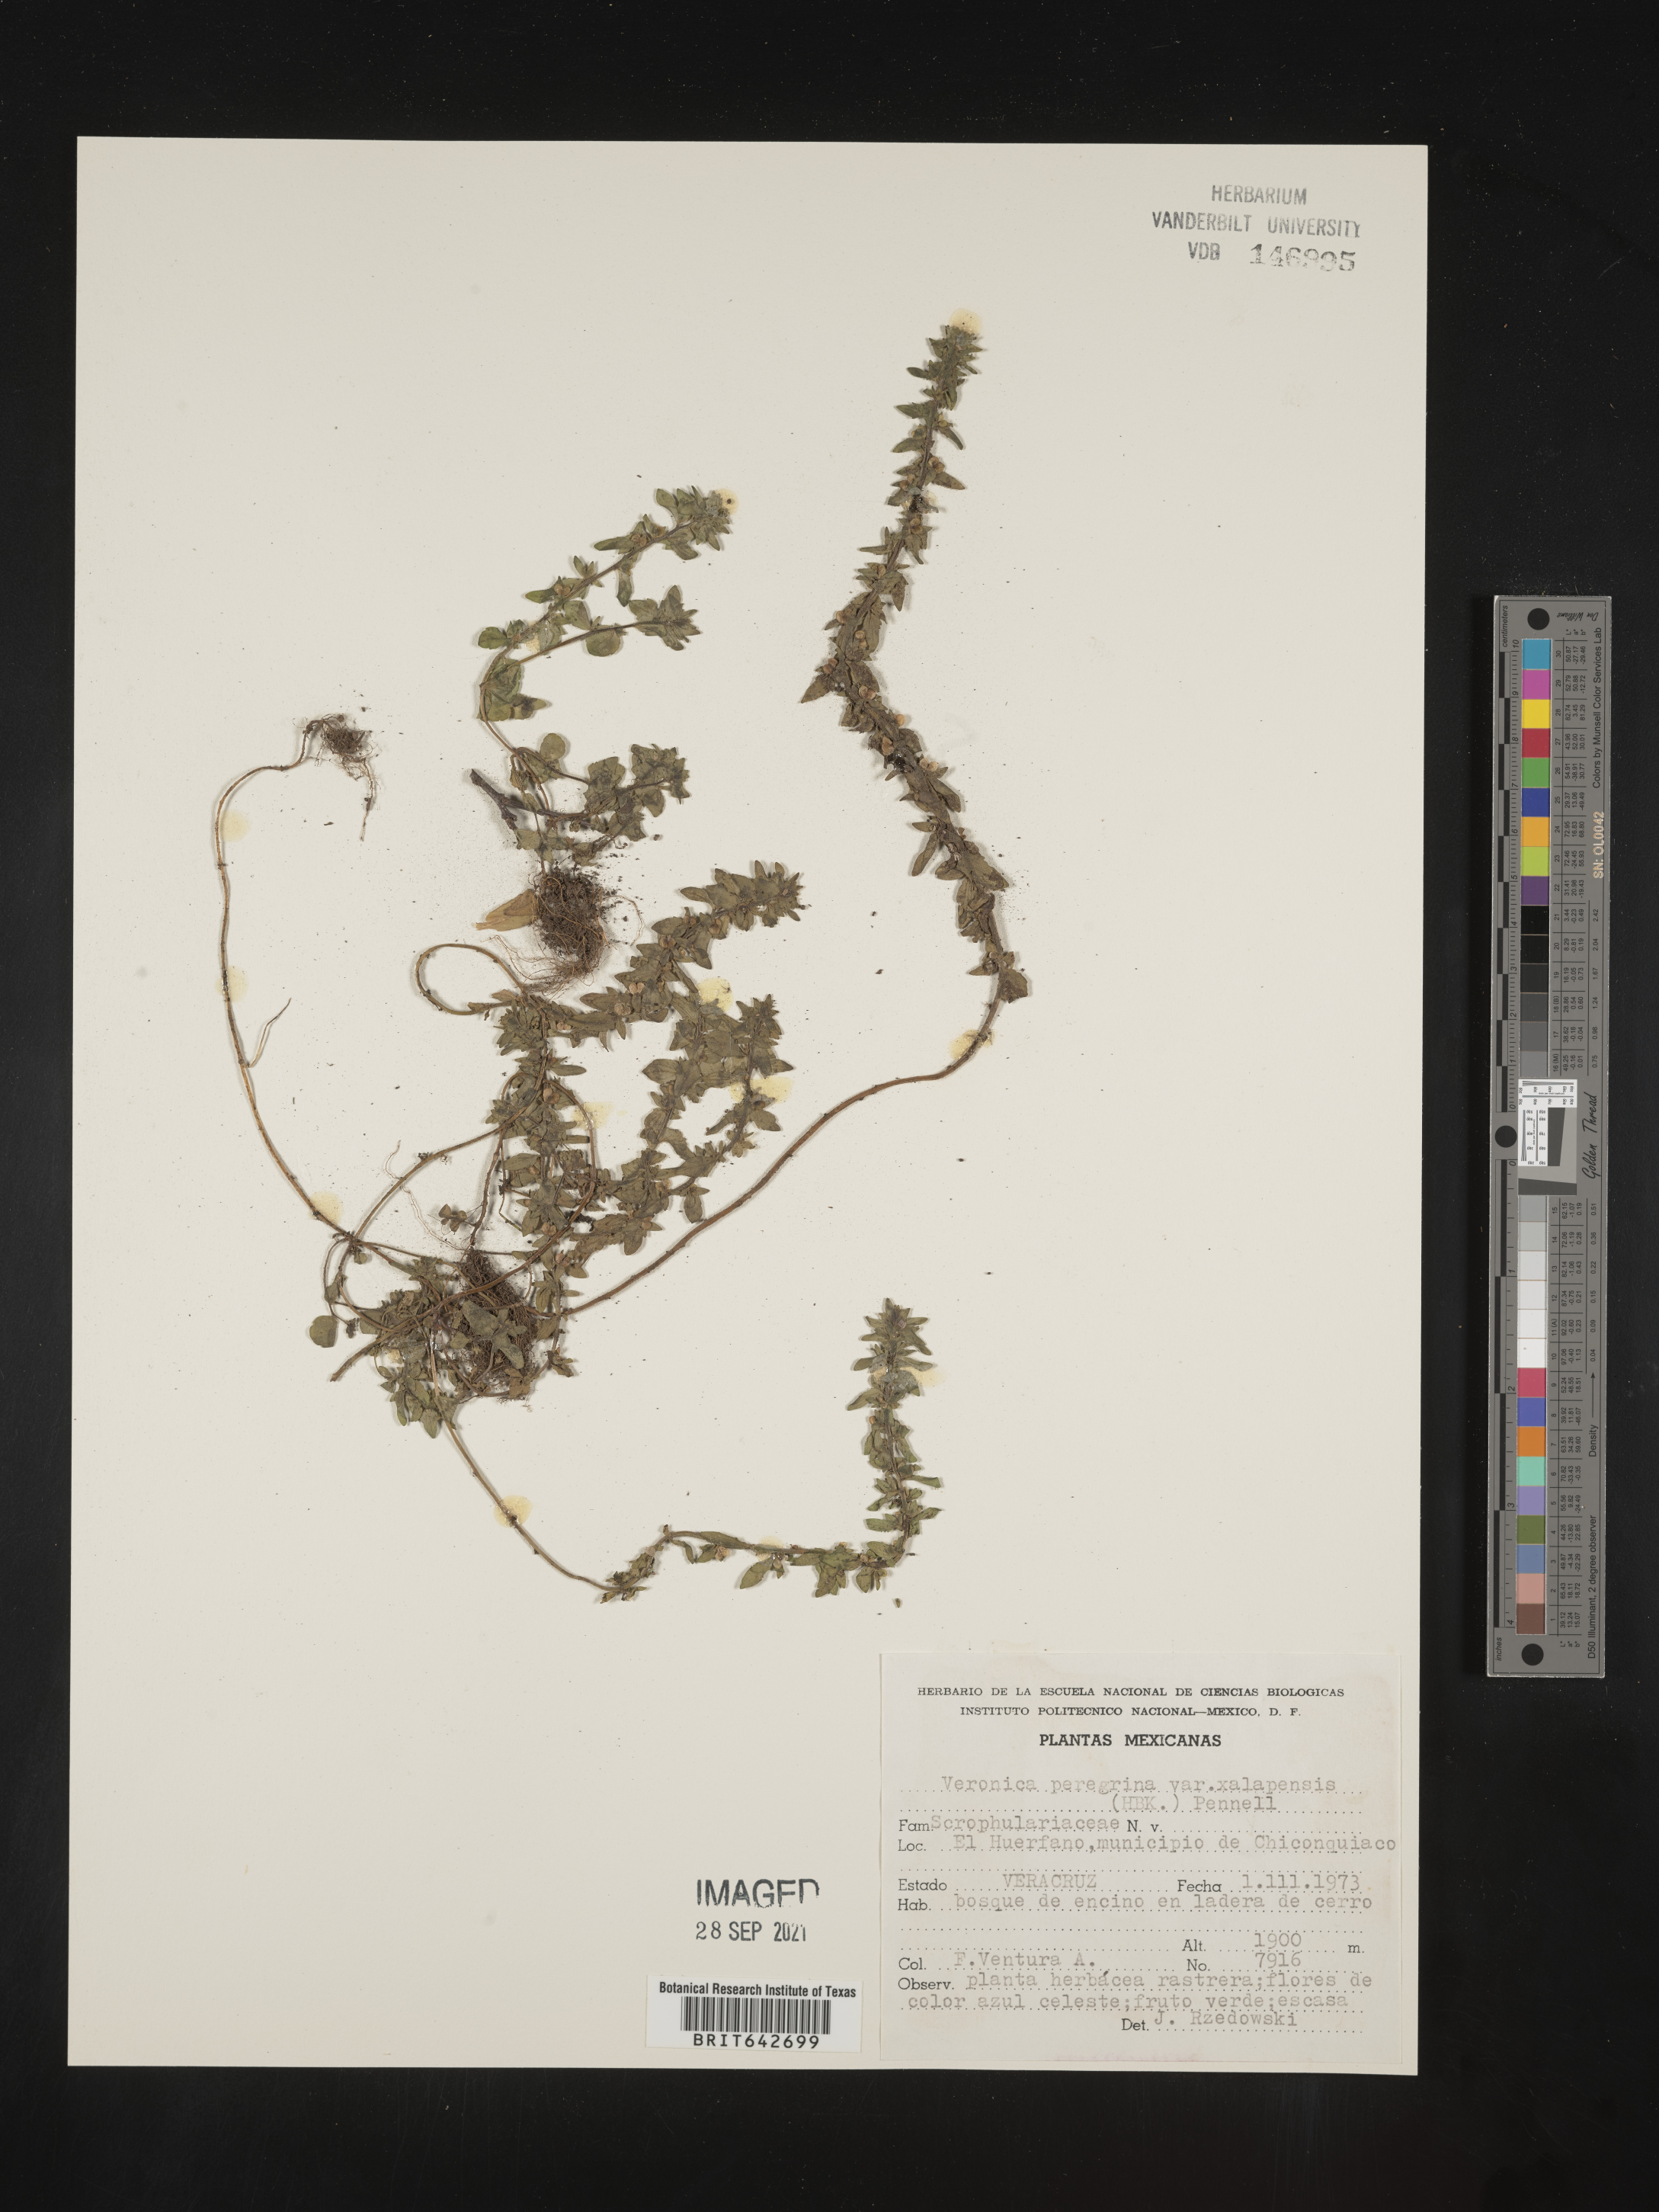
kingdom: Plantae
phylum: Tracheophyta
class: Magnoliopsida
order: Lamiales
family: Plantaginaceae
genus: Veronica
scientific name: Veronica
